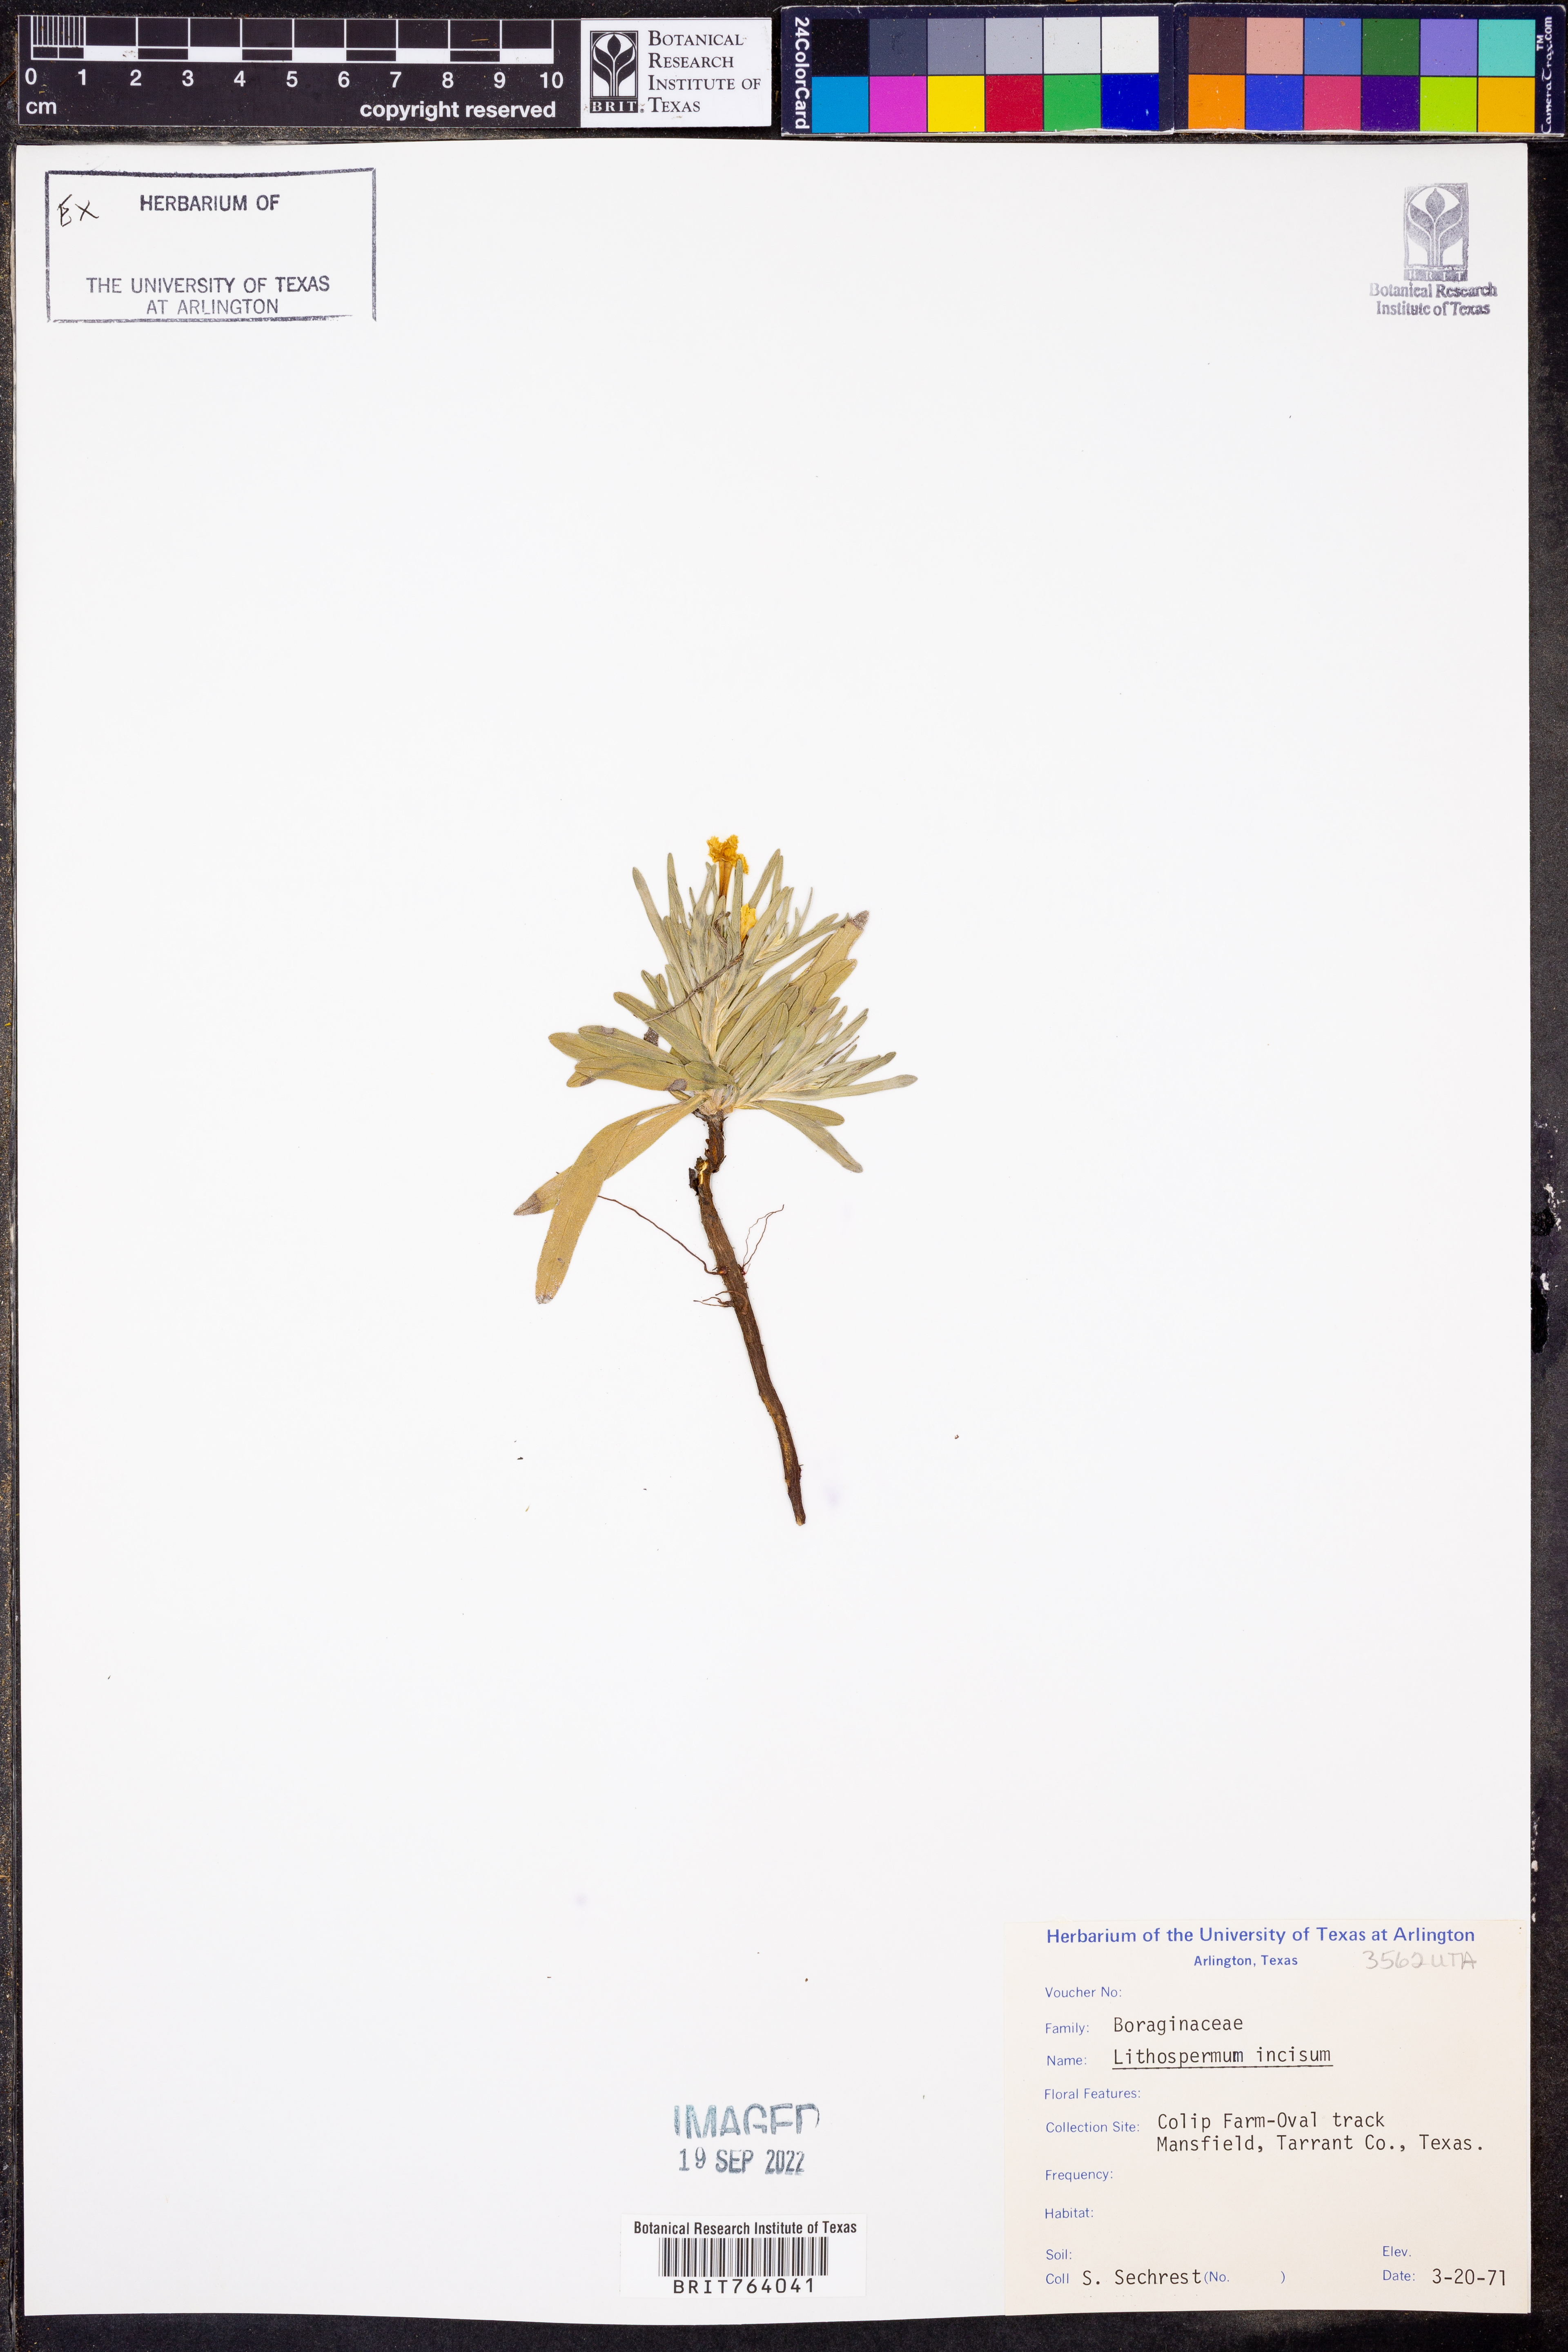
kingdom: Plantae
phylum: Tracheophyta
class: Magnoliopsida
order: Boraginales
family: Boraginaceae
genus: Lithospermum
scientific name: Lithospermum incisum
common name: Fringed gromwell
